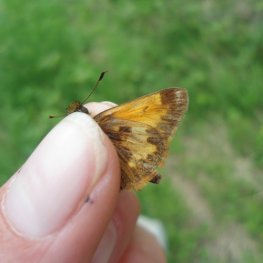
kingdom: Animalia
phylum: Arthropoda
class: Insecta
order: Lepidoptera
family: Hesperiidae
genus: Lon
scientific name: Lon hobomok
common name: Hobomok Skipper
